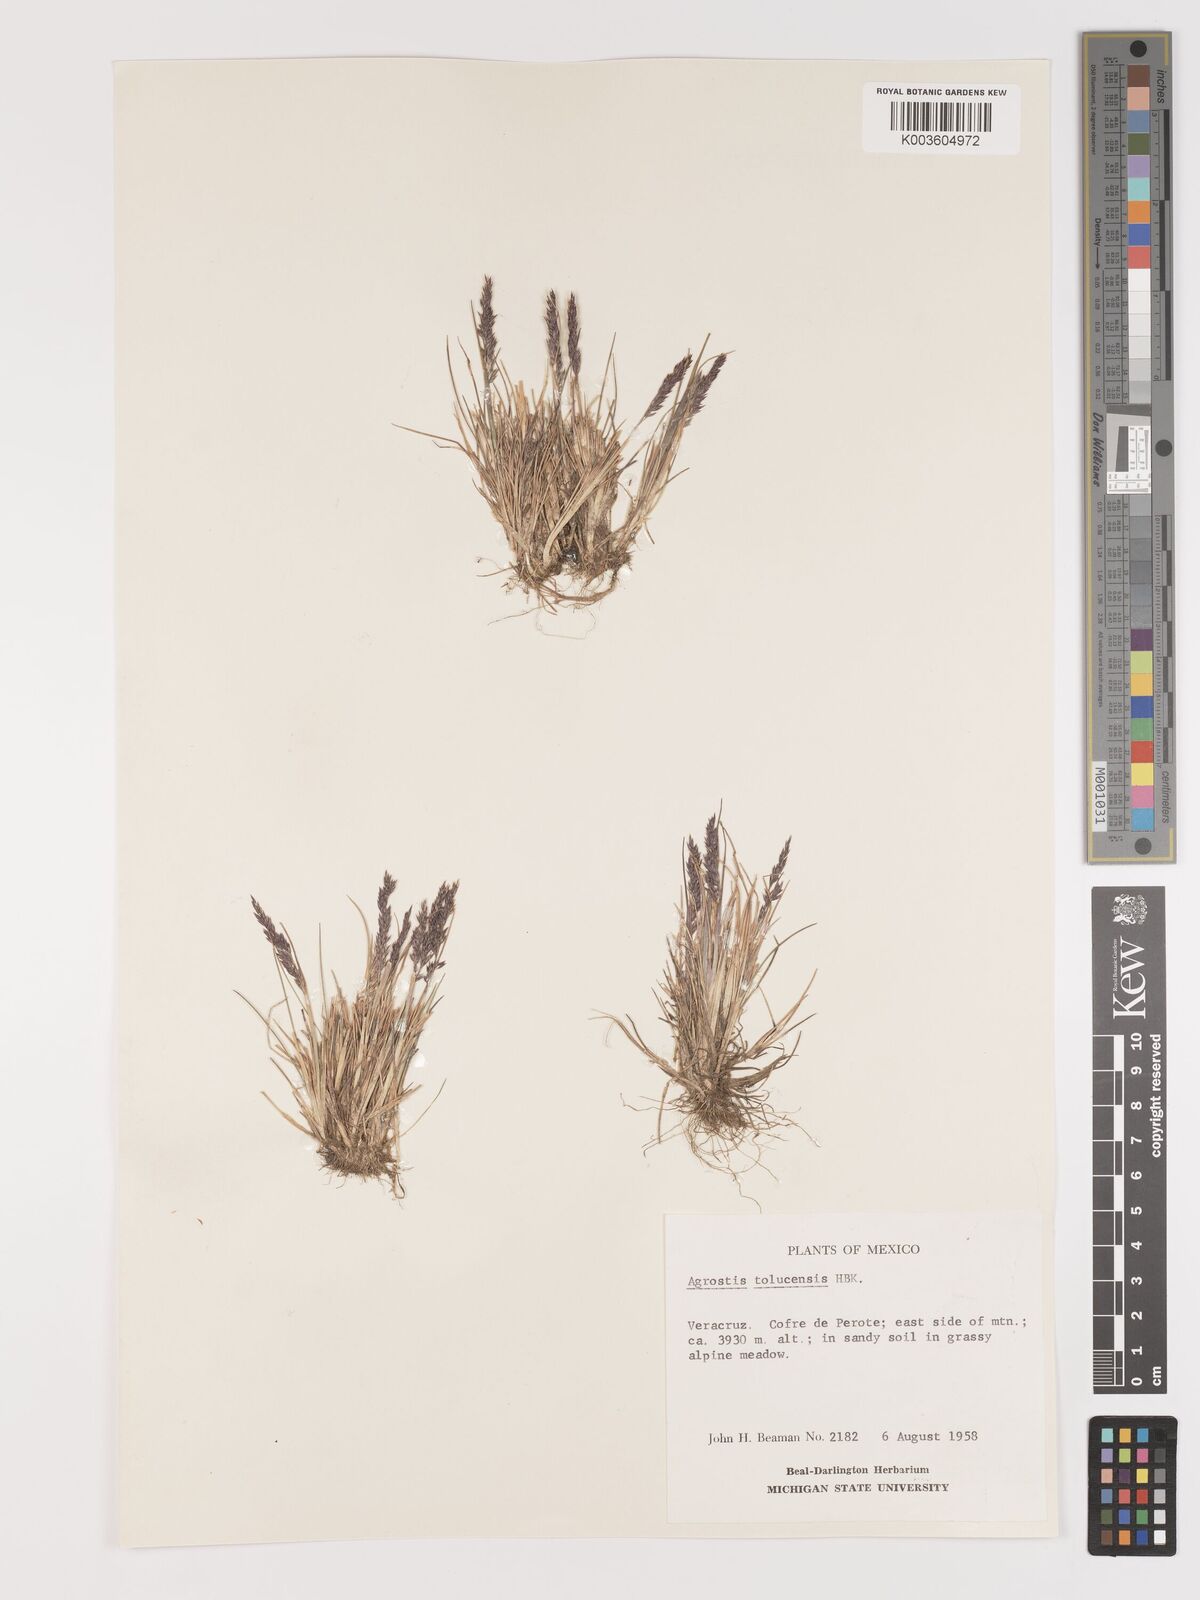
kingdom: Plantae
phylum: Tracheophyta
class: Liliopsida
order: Poales
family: Poaceae
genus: Agrostis
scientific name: Agrostis tolucensis
